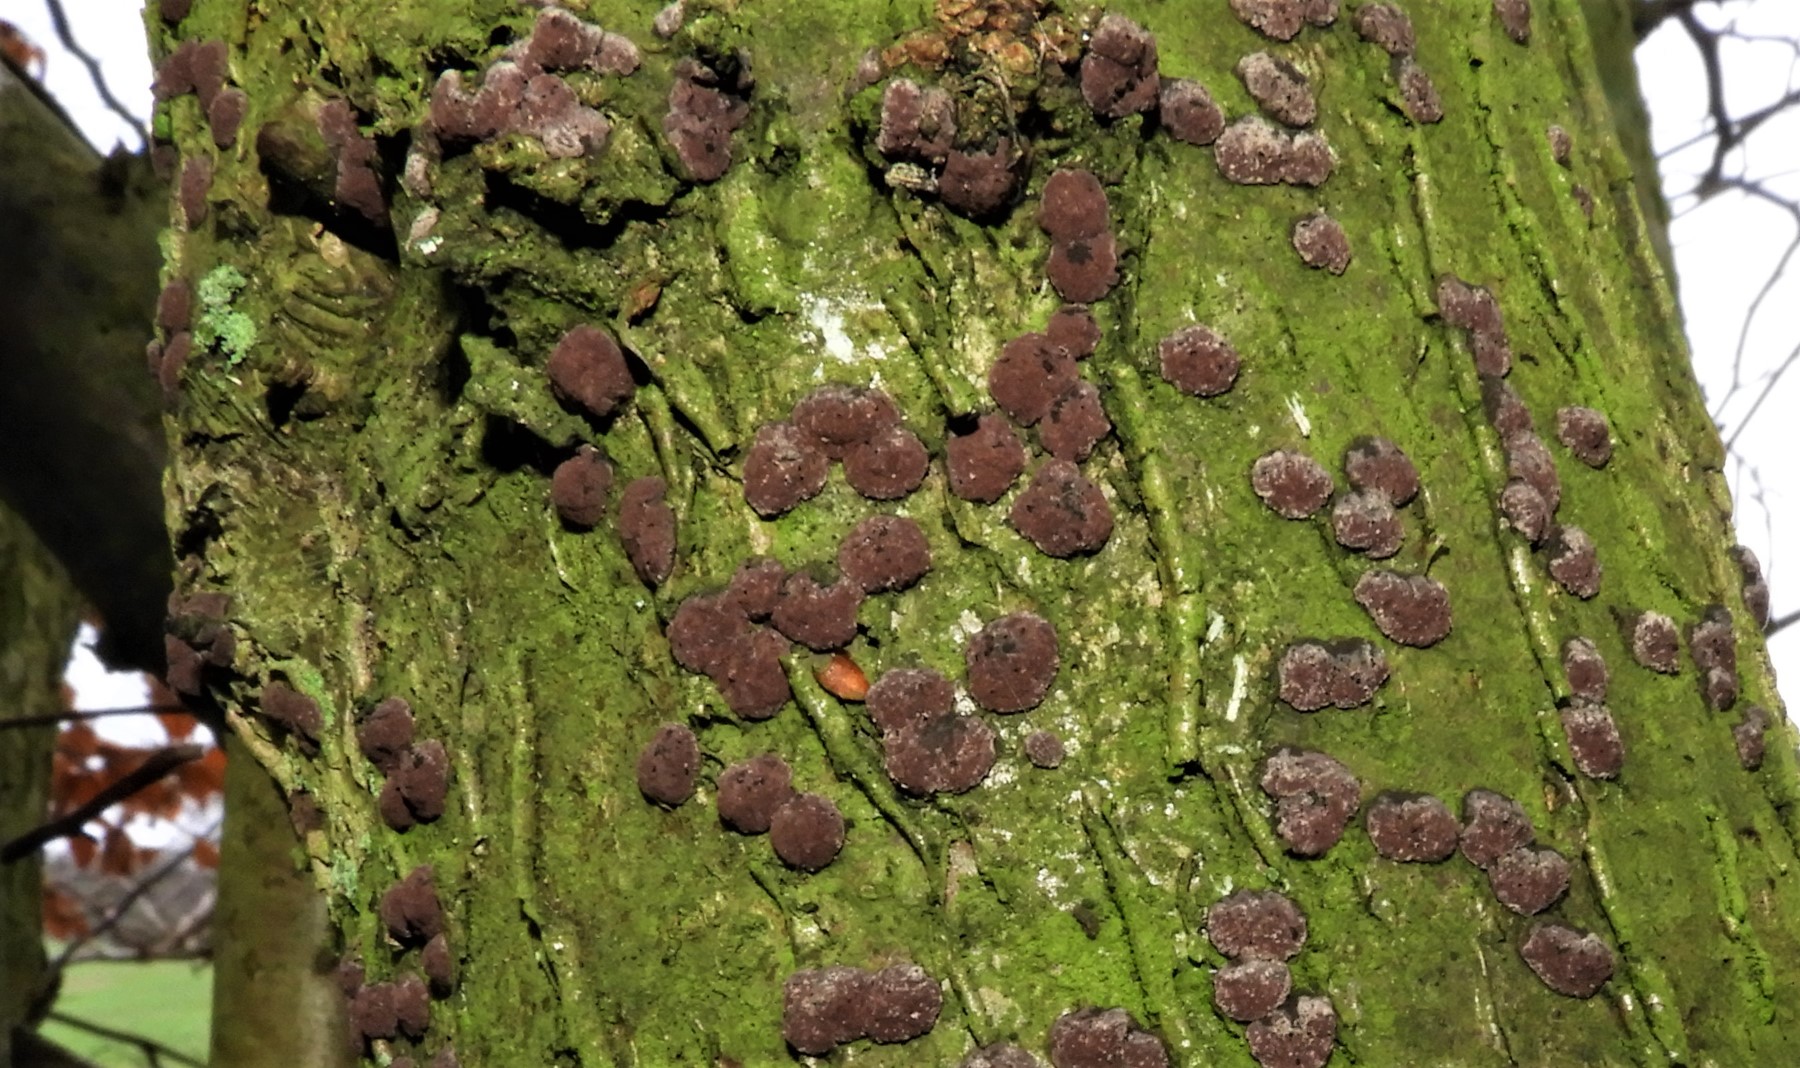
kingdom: Fungi
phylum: Ascomycota
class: Sordariomycetes
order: Xylariales
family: Hypoxylaceae
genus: Hypoxylon
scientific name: Hypoxylon fuscum
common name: kegleformet kulbær
